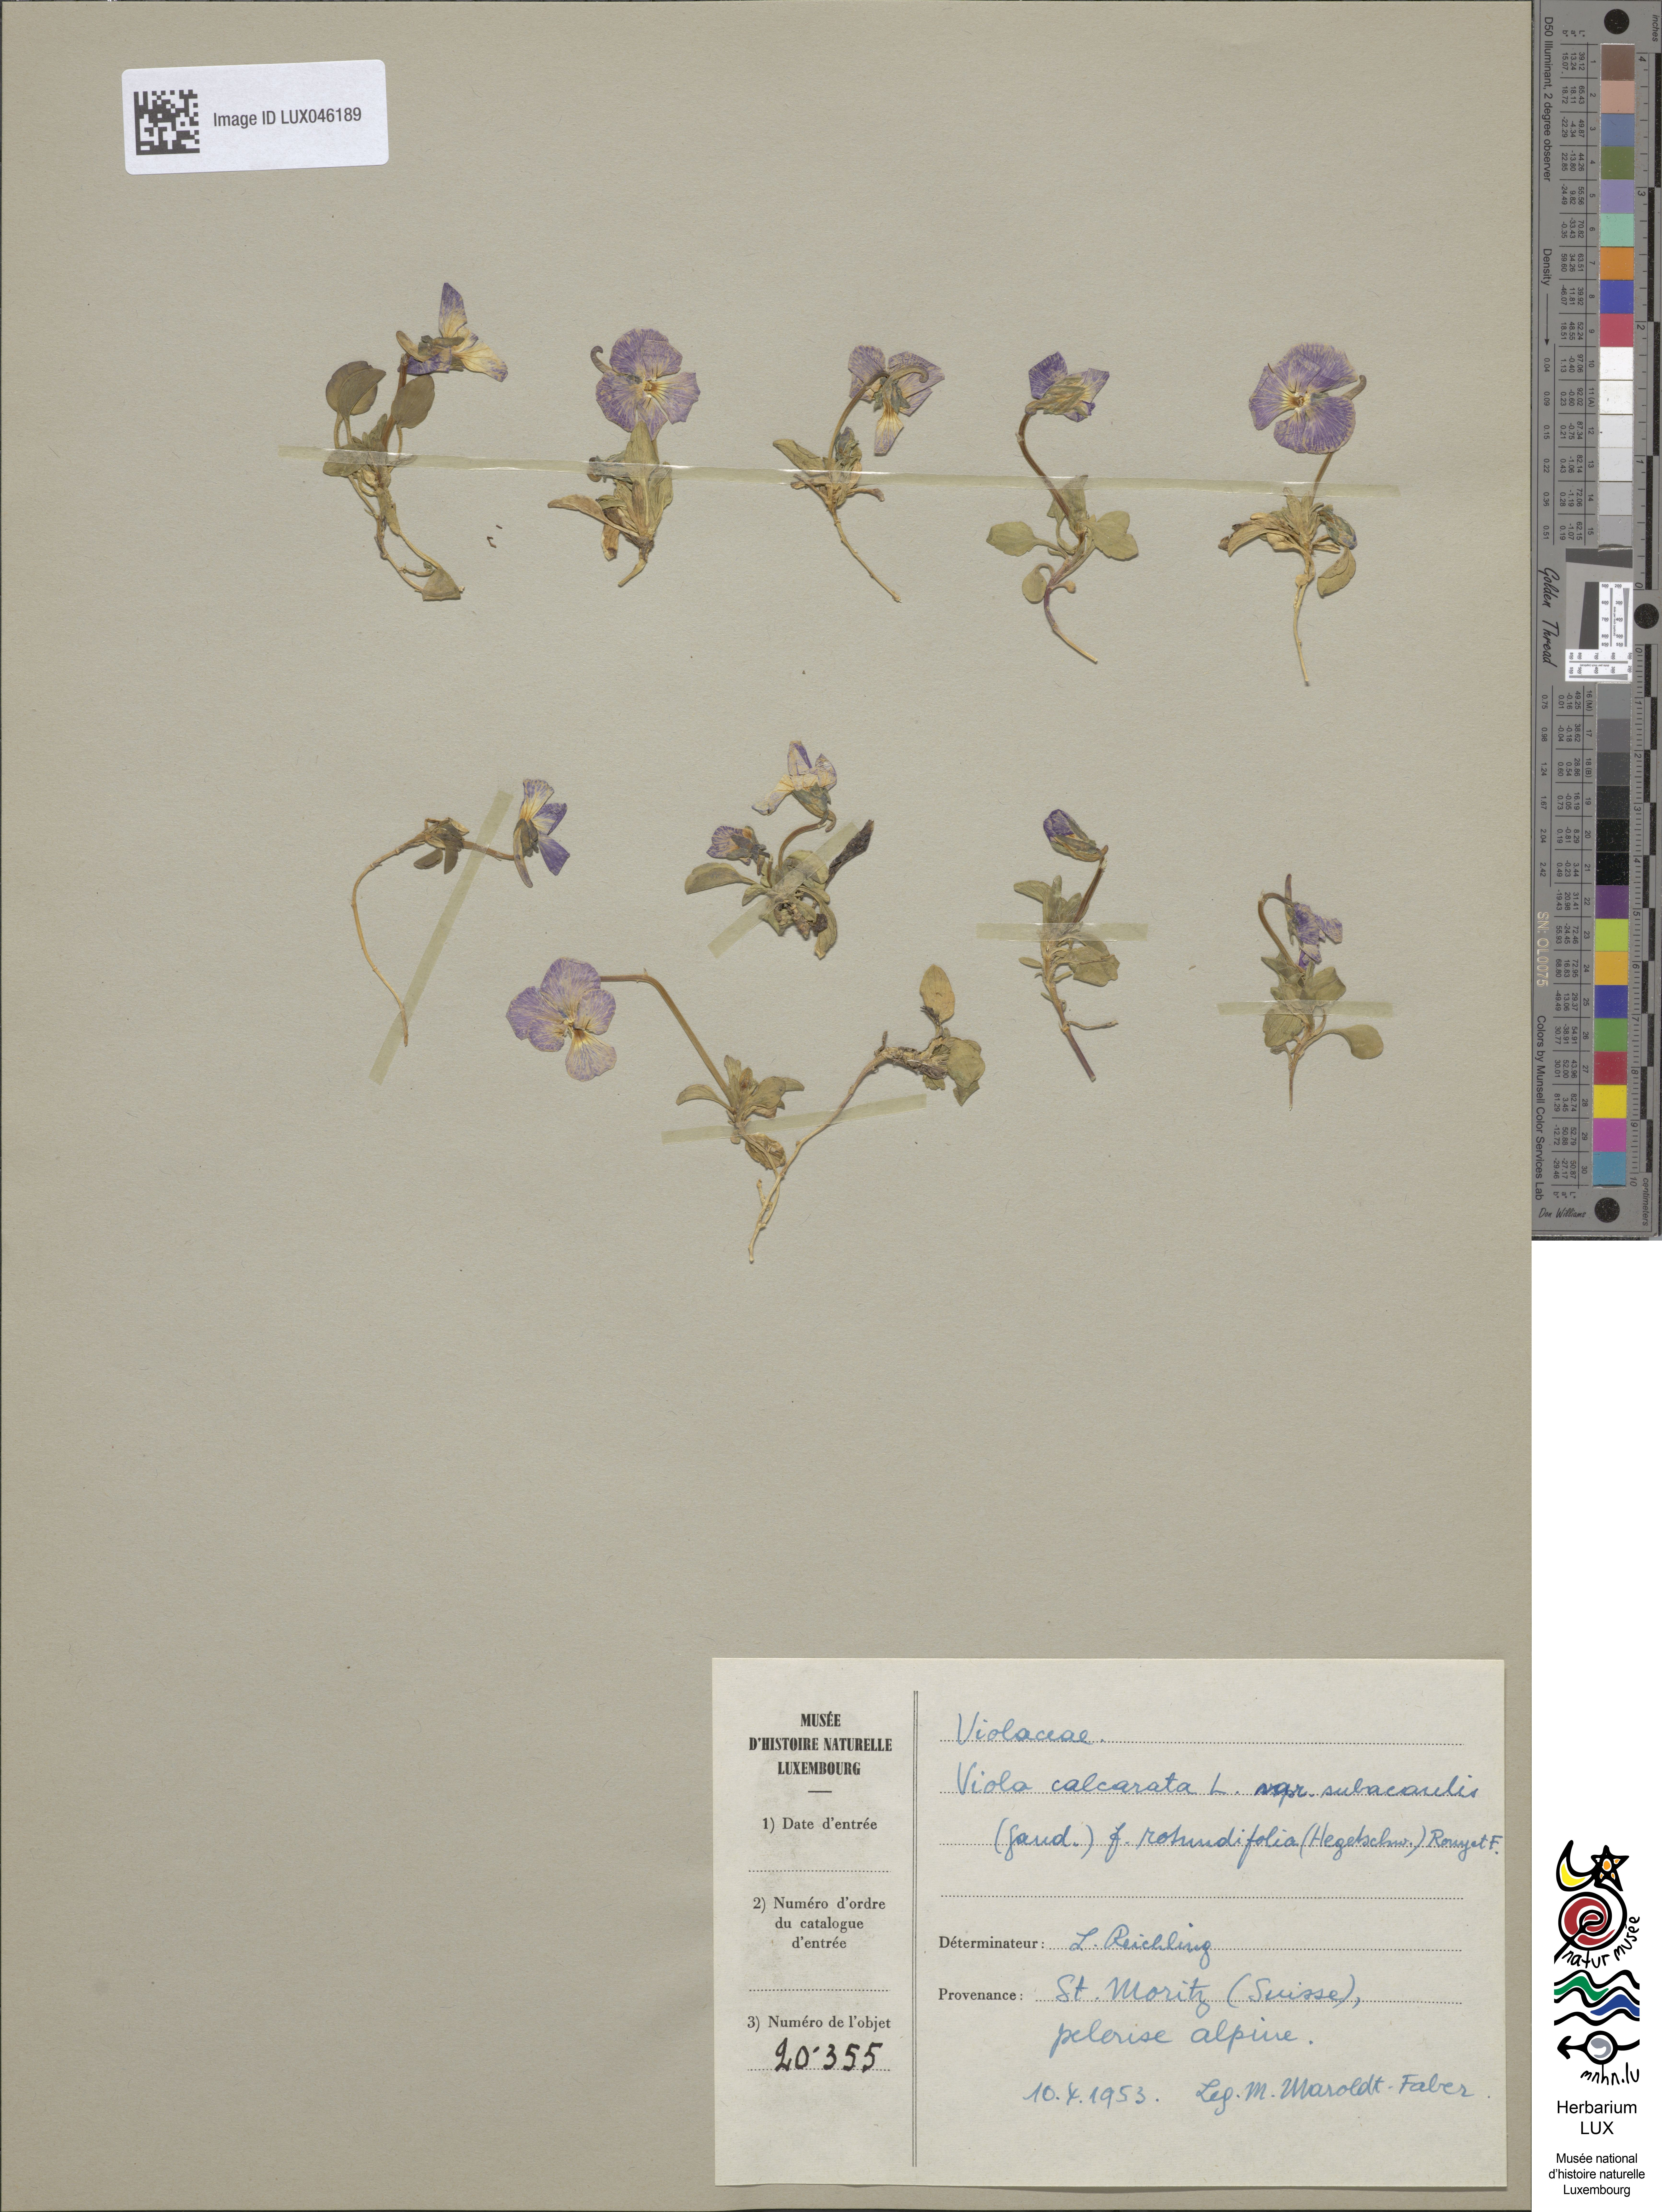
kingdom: Plantae
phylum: Tracheophyta
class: Magnoliopsida
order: Malpighiales
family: Violaceae
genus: Viola
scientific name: Viola calcarata
